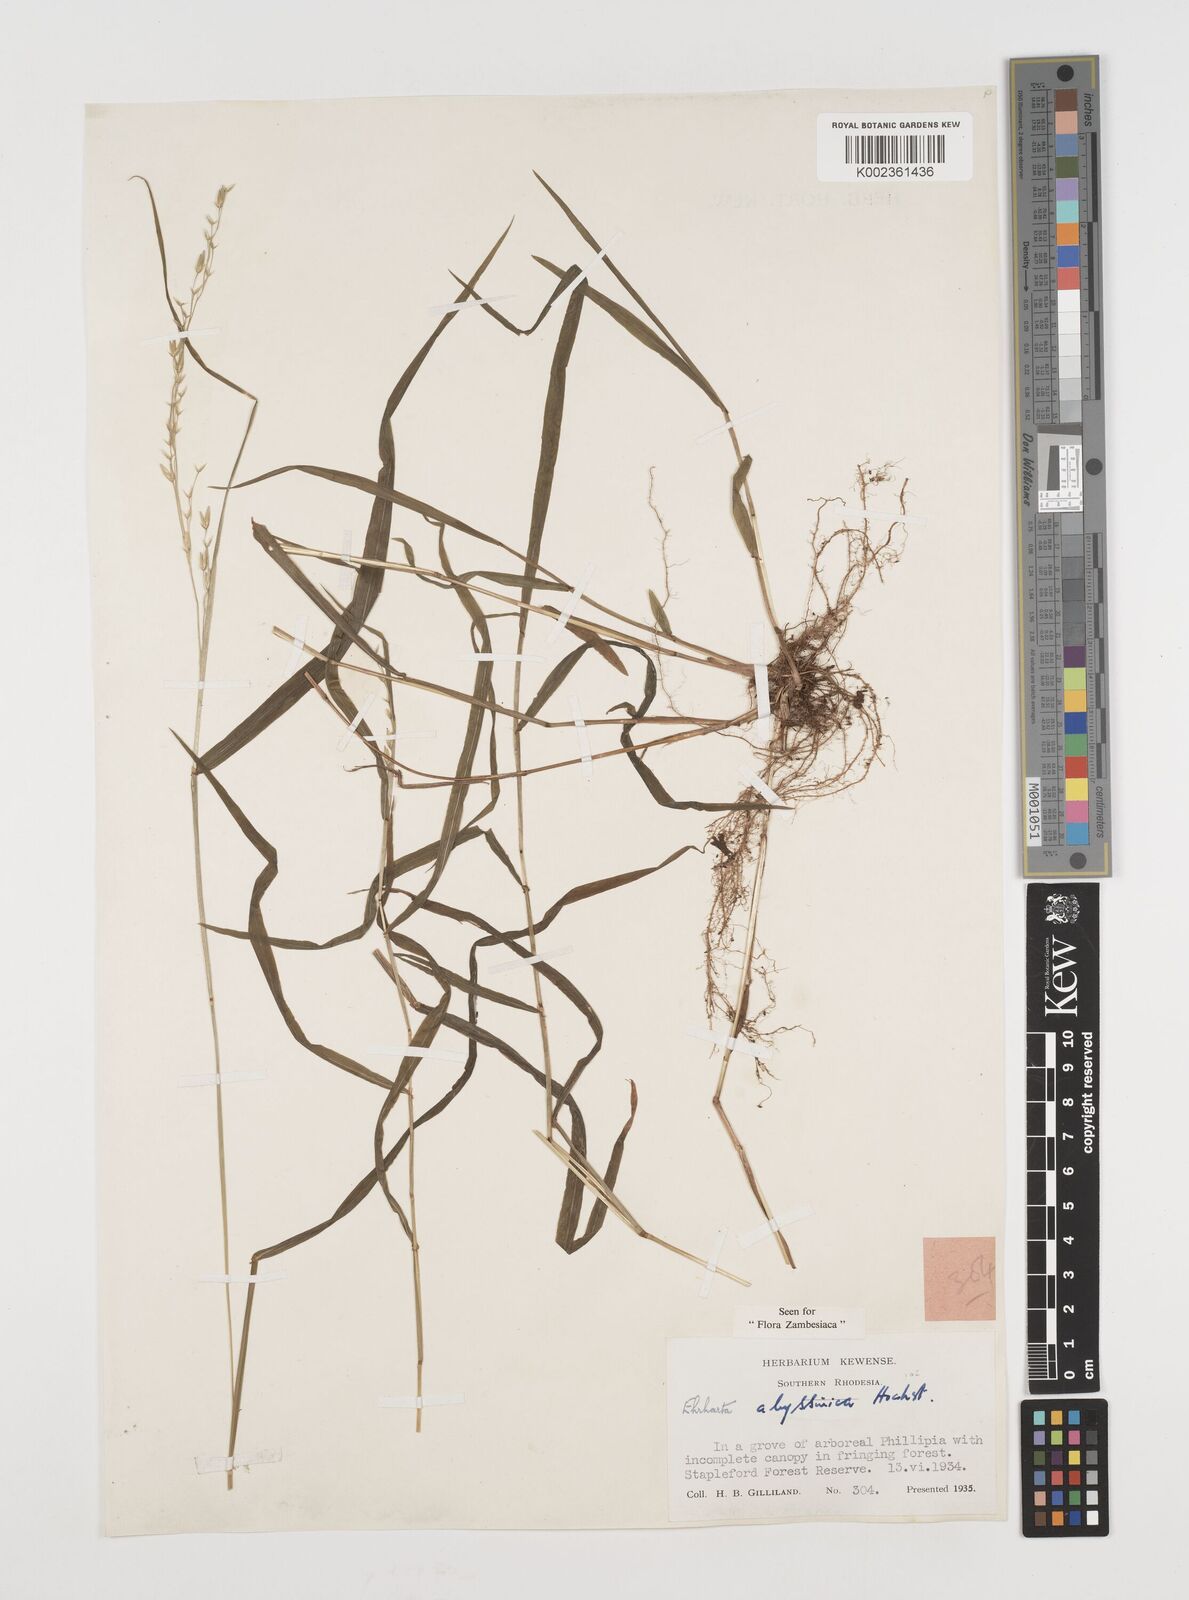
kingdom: Plantae
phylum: Tracheophyta
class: Liliopsida
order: Poales
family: Poaceae
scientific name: Poaceae
